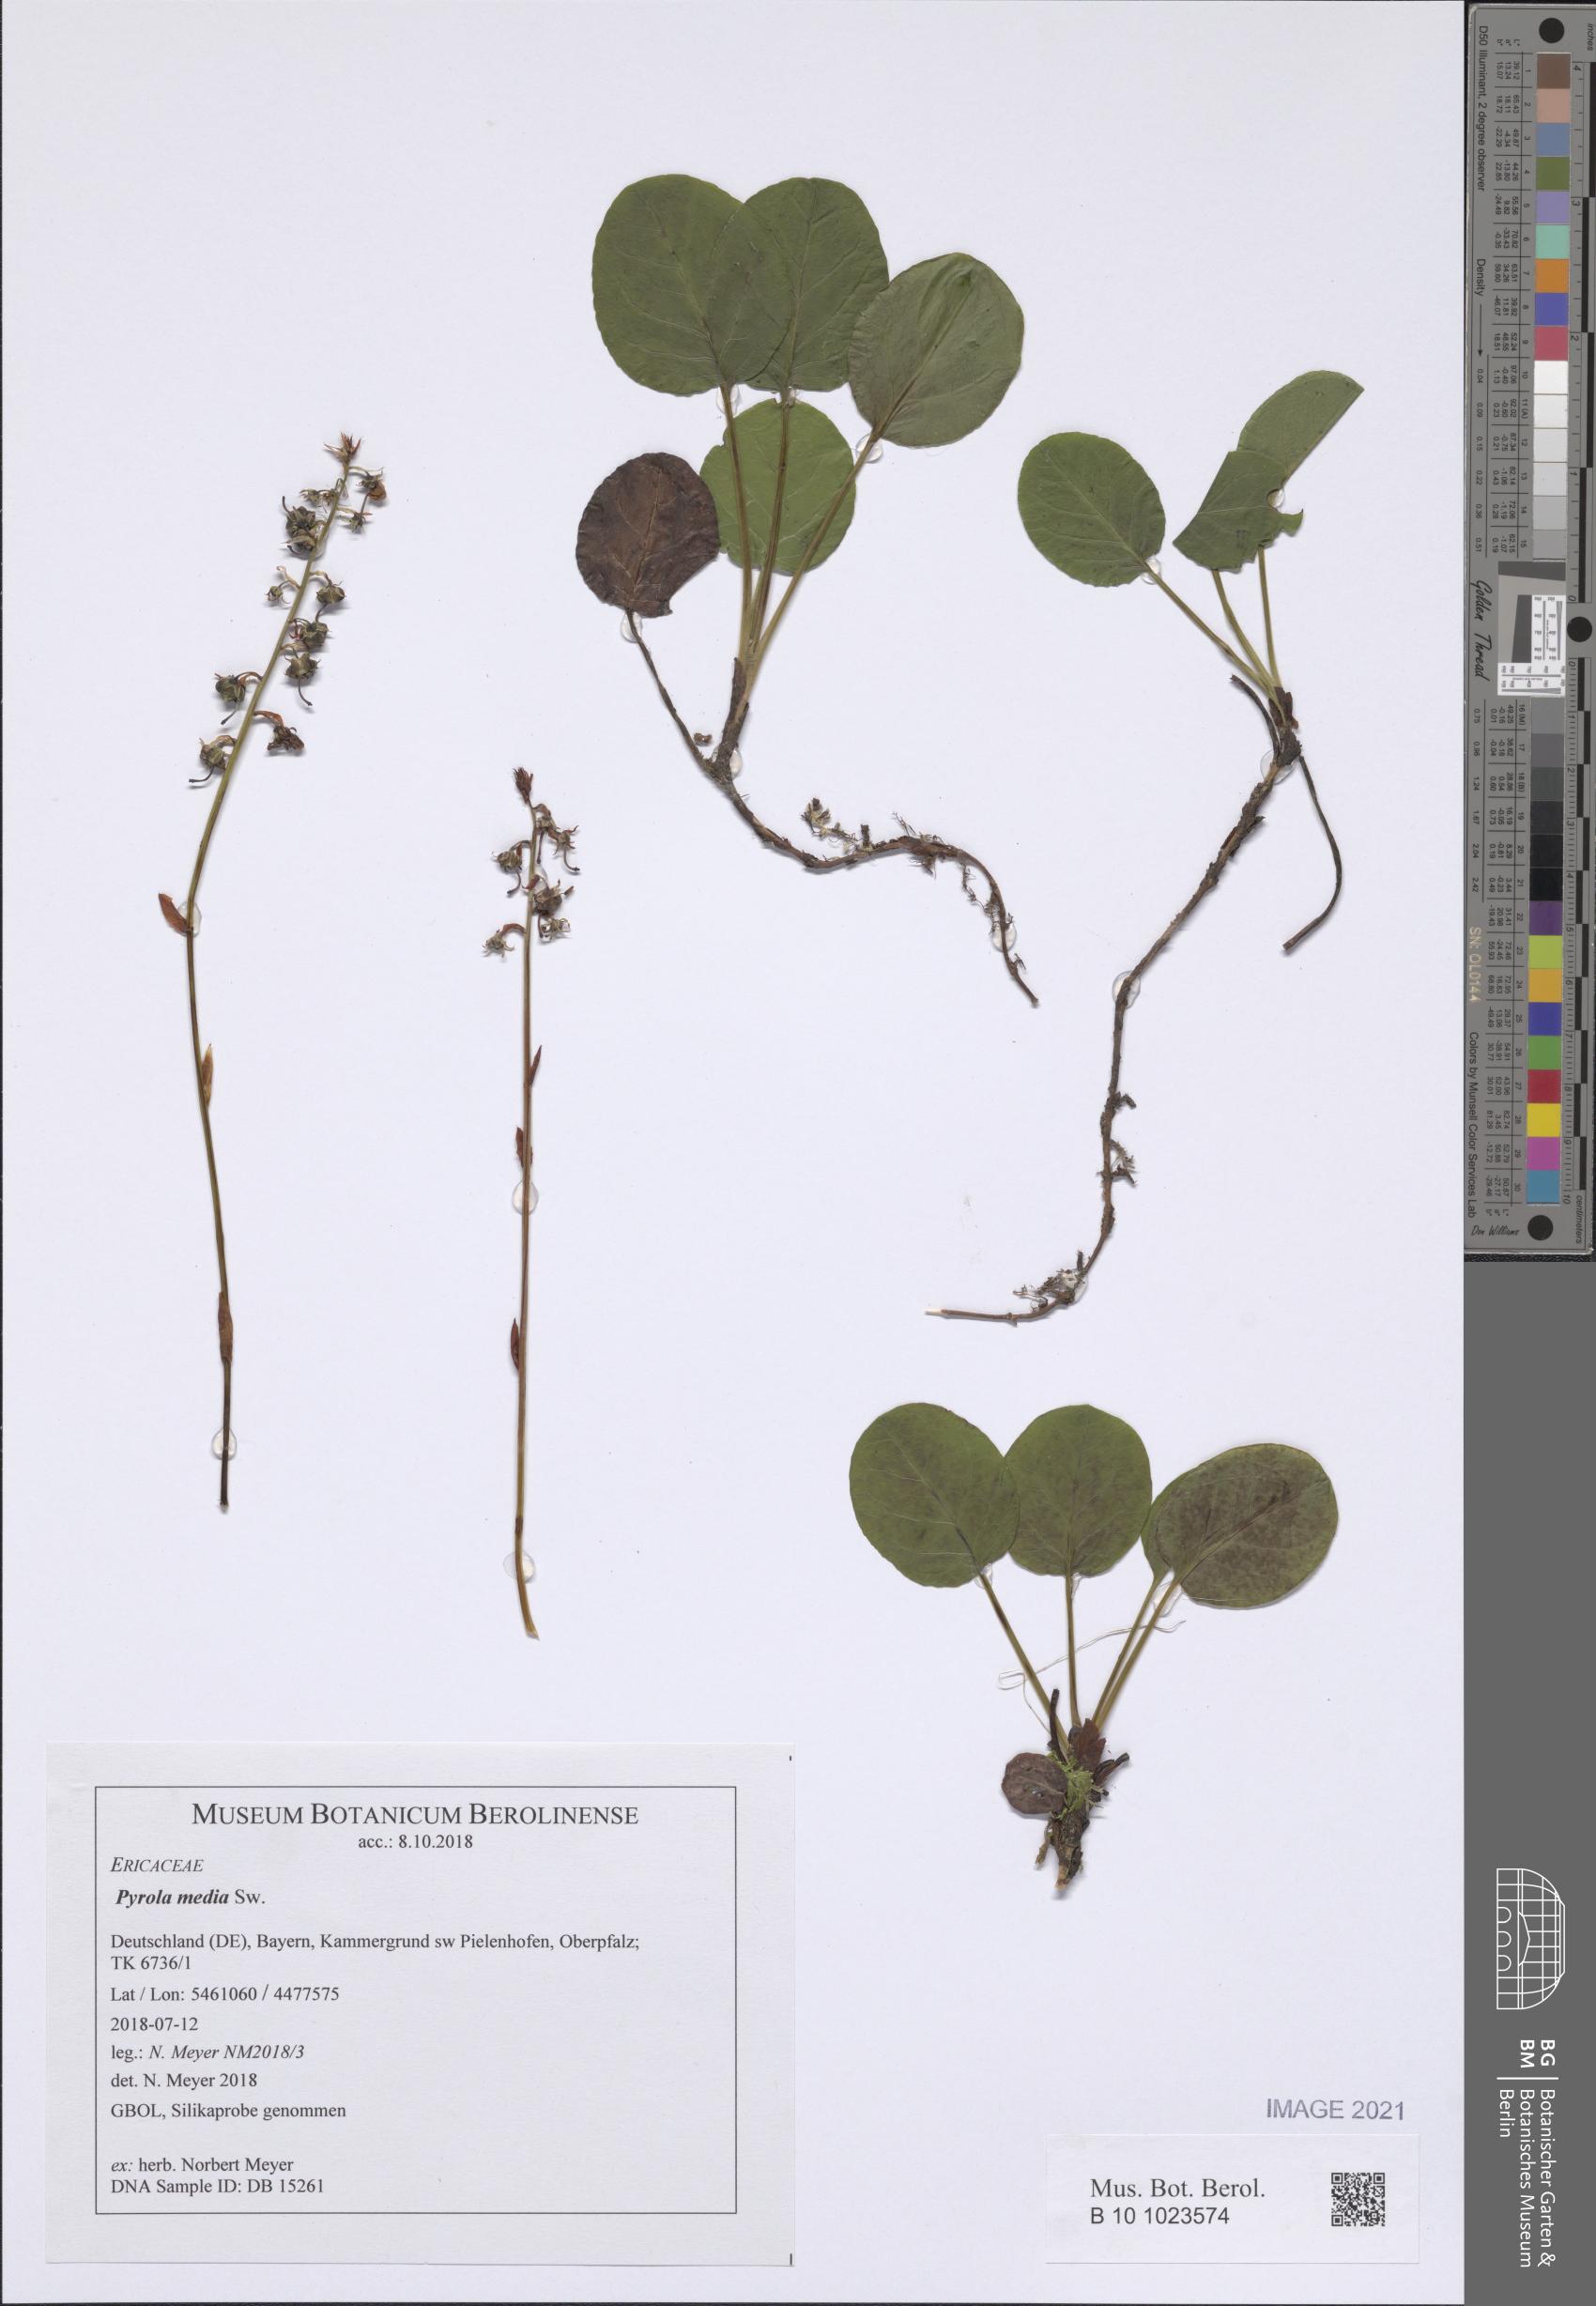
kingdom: Plantae
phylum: Tracheophyta
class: Magnoliopsida
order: Ericales
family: Ericaceae
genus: Pyrola
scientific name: Pyrola media
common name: Intermediate wintergreen
